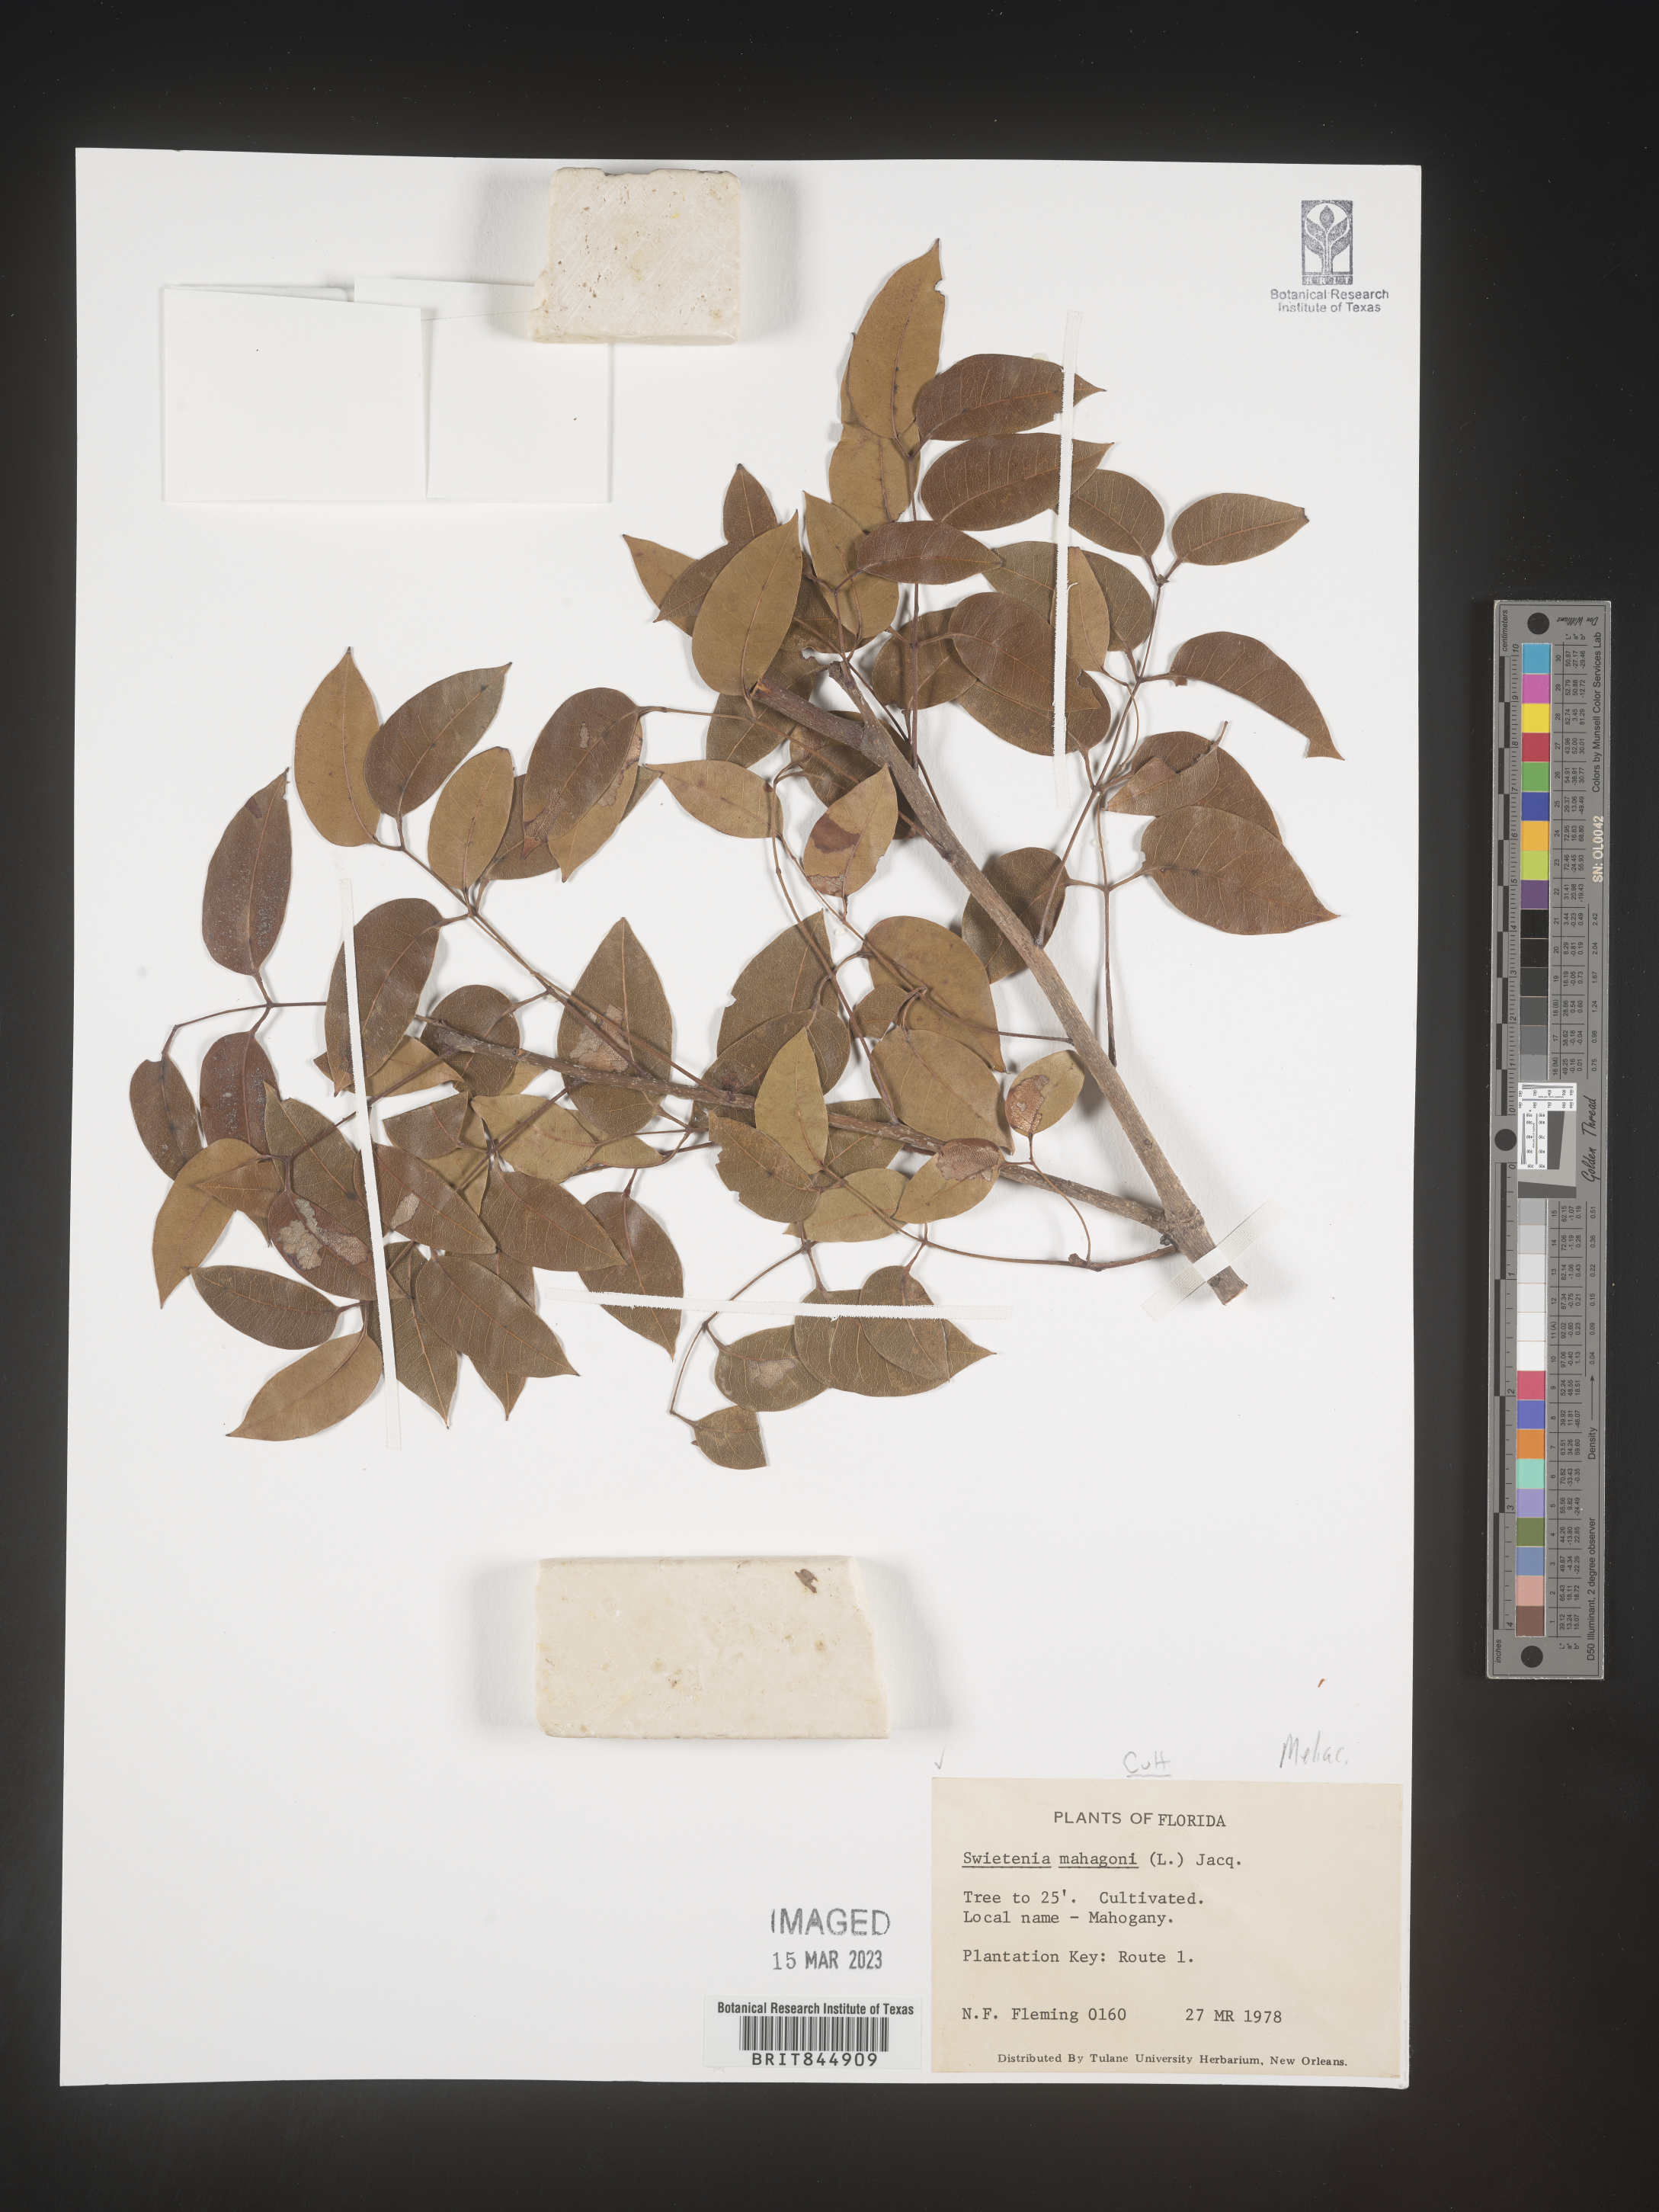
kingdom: Plantae
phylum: Tracheophyta
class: Magnoliopsida
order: Sapindales
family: Meliaceae
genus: Swietenia
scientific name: Swietenia
